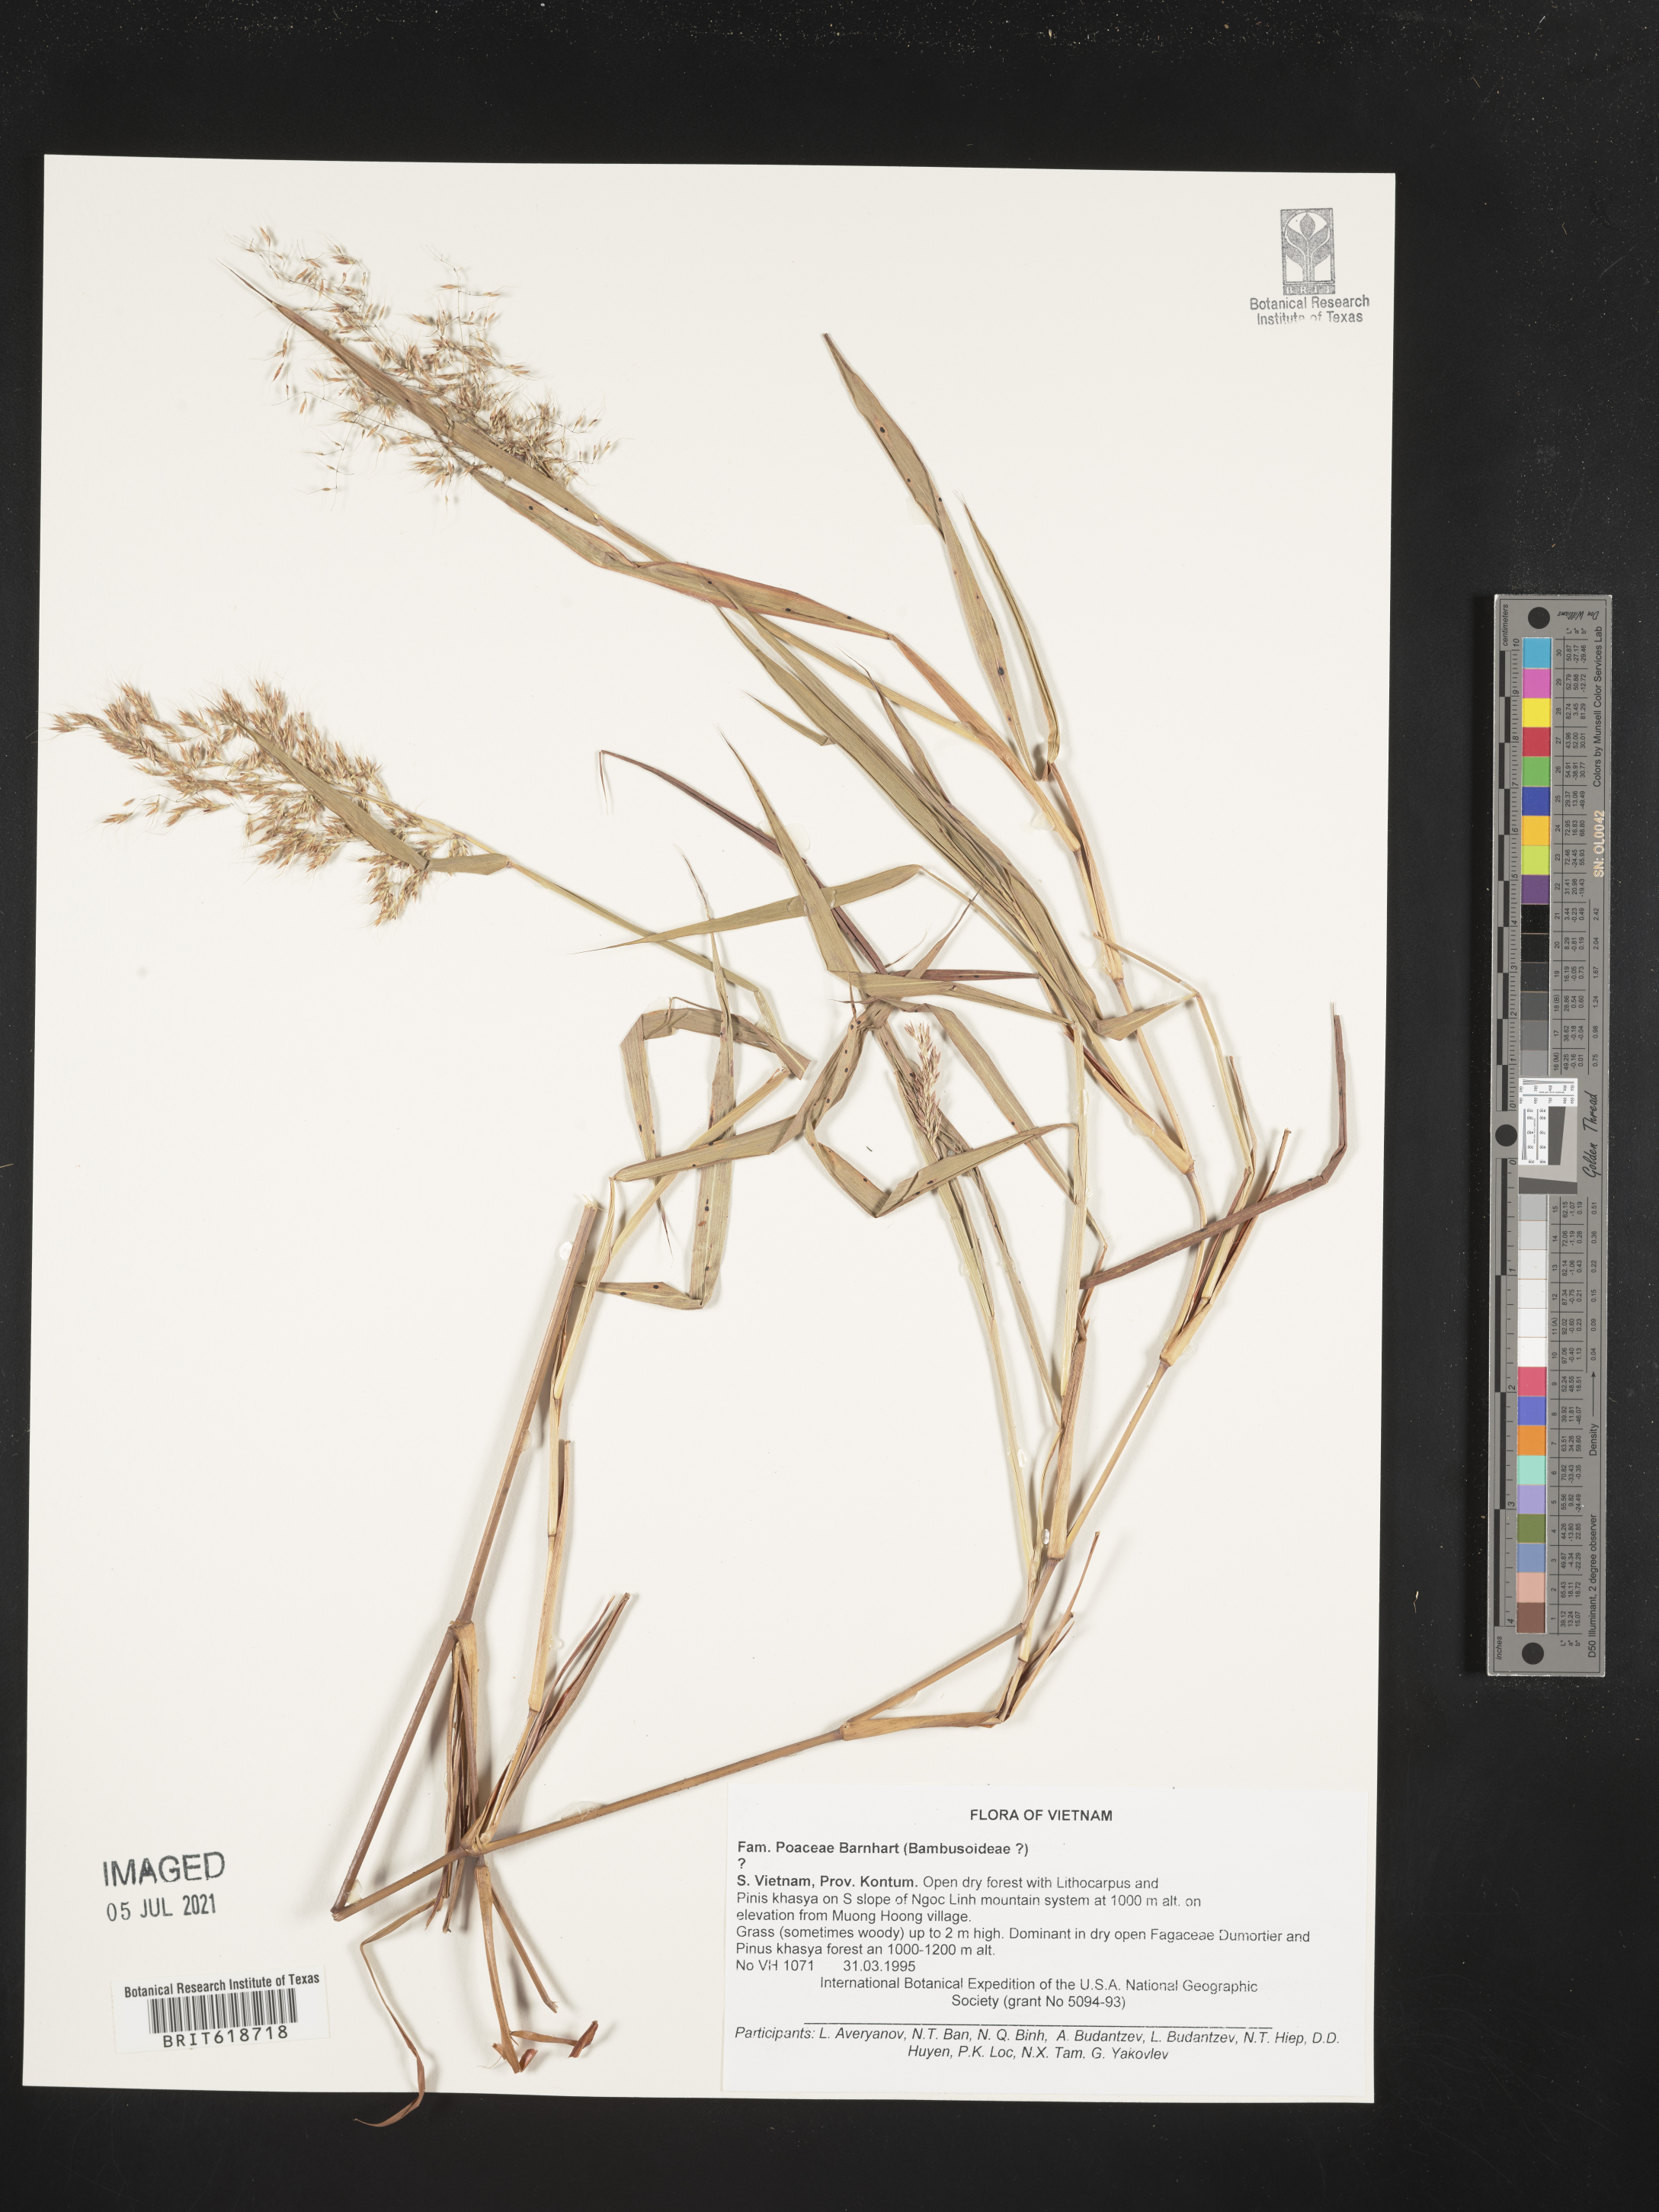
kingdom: Plantae
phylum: Tracheophyta
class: Liliopsida
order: Poales
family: Poaceae
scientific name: Poaceae
